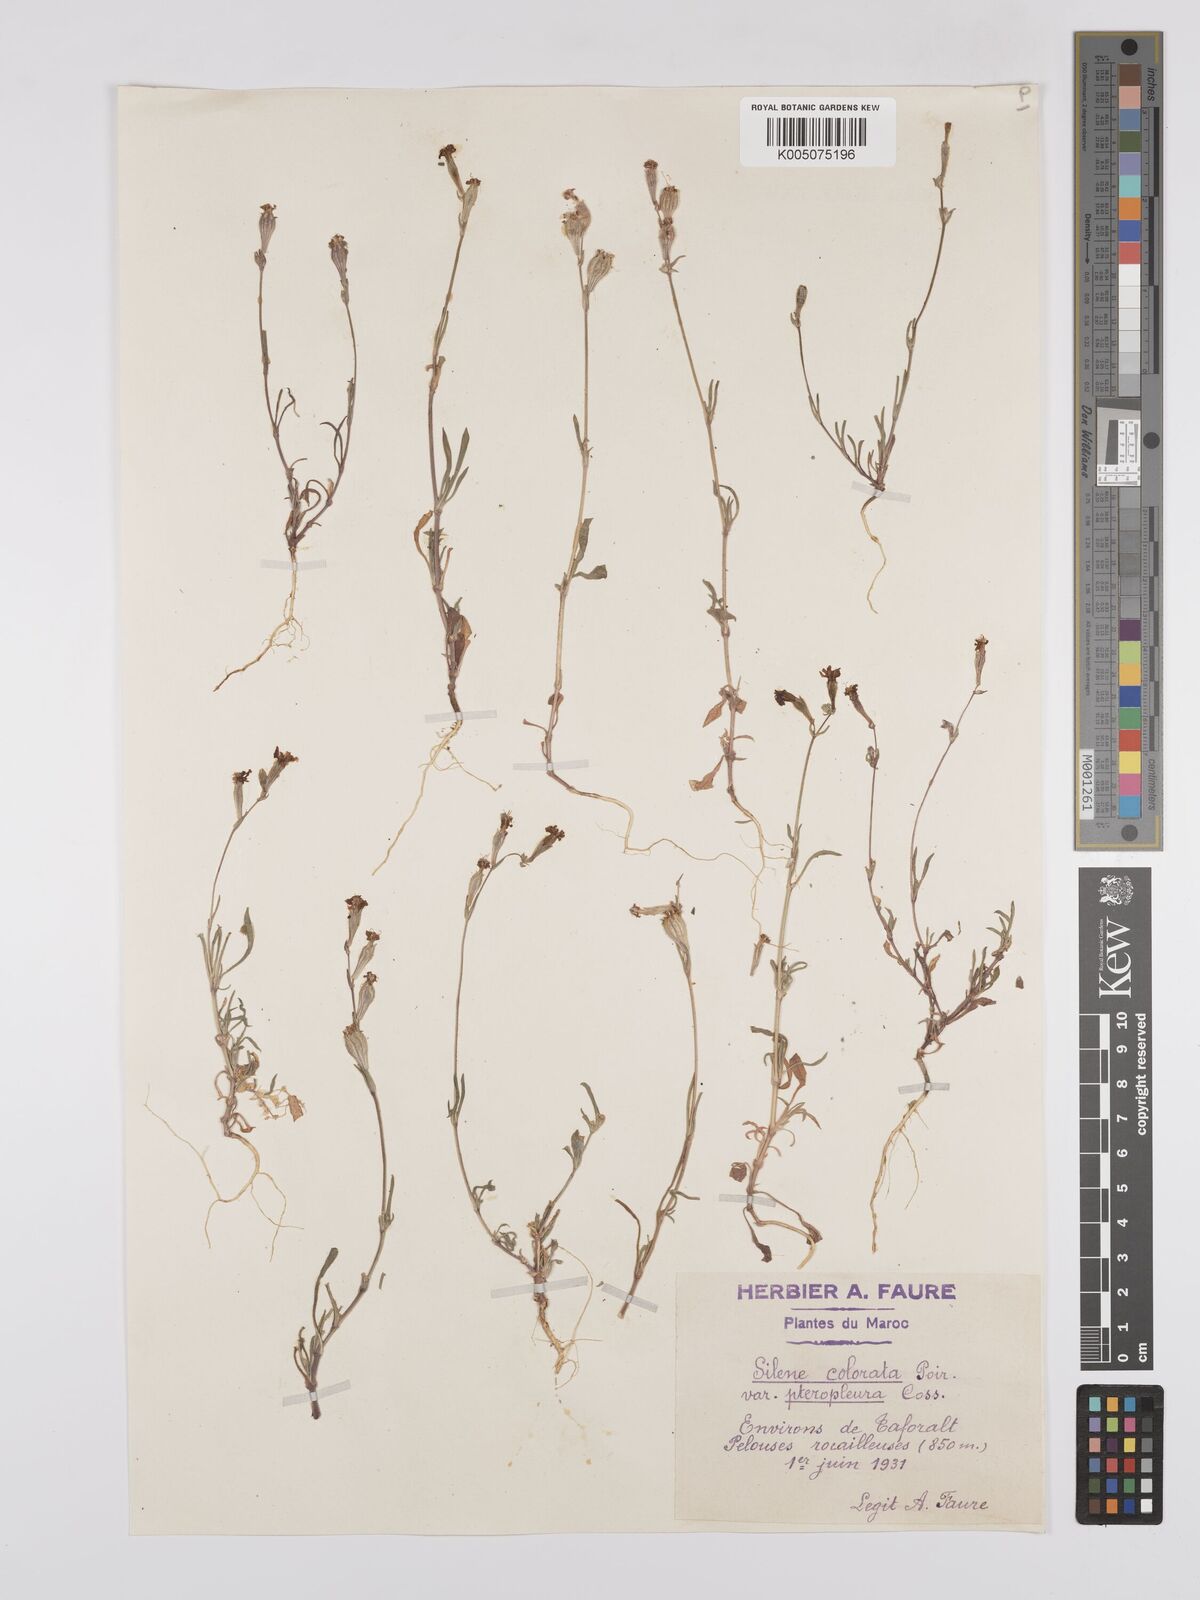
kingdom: Plantae
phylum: Tracheophyta
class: Magnoliopsida
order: Caryophyllales
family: Caryophyllaceae
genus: Silene
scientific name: Silene stricta
